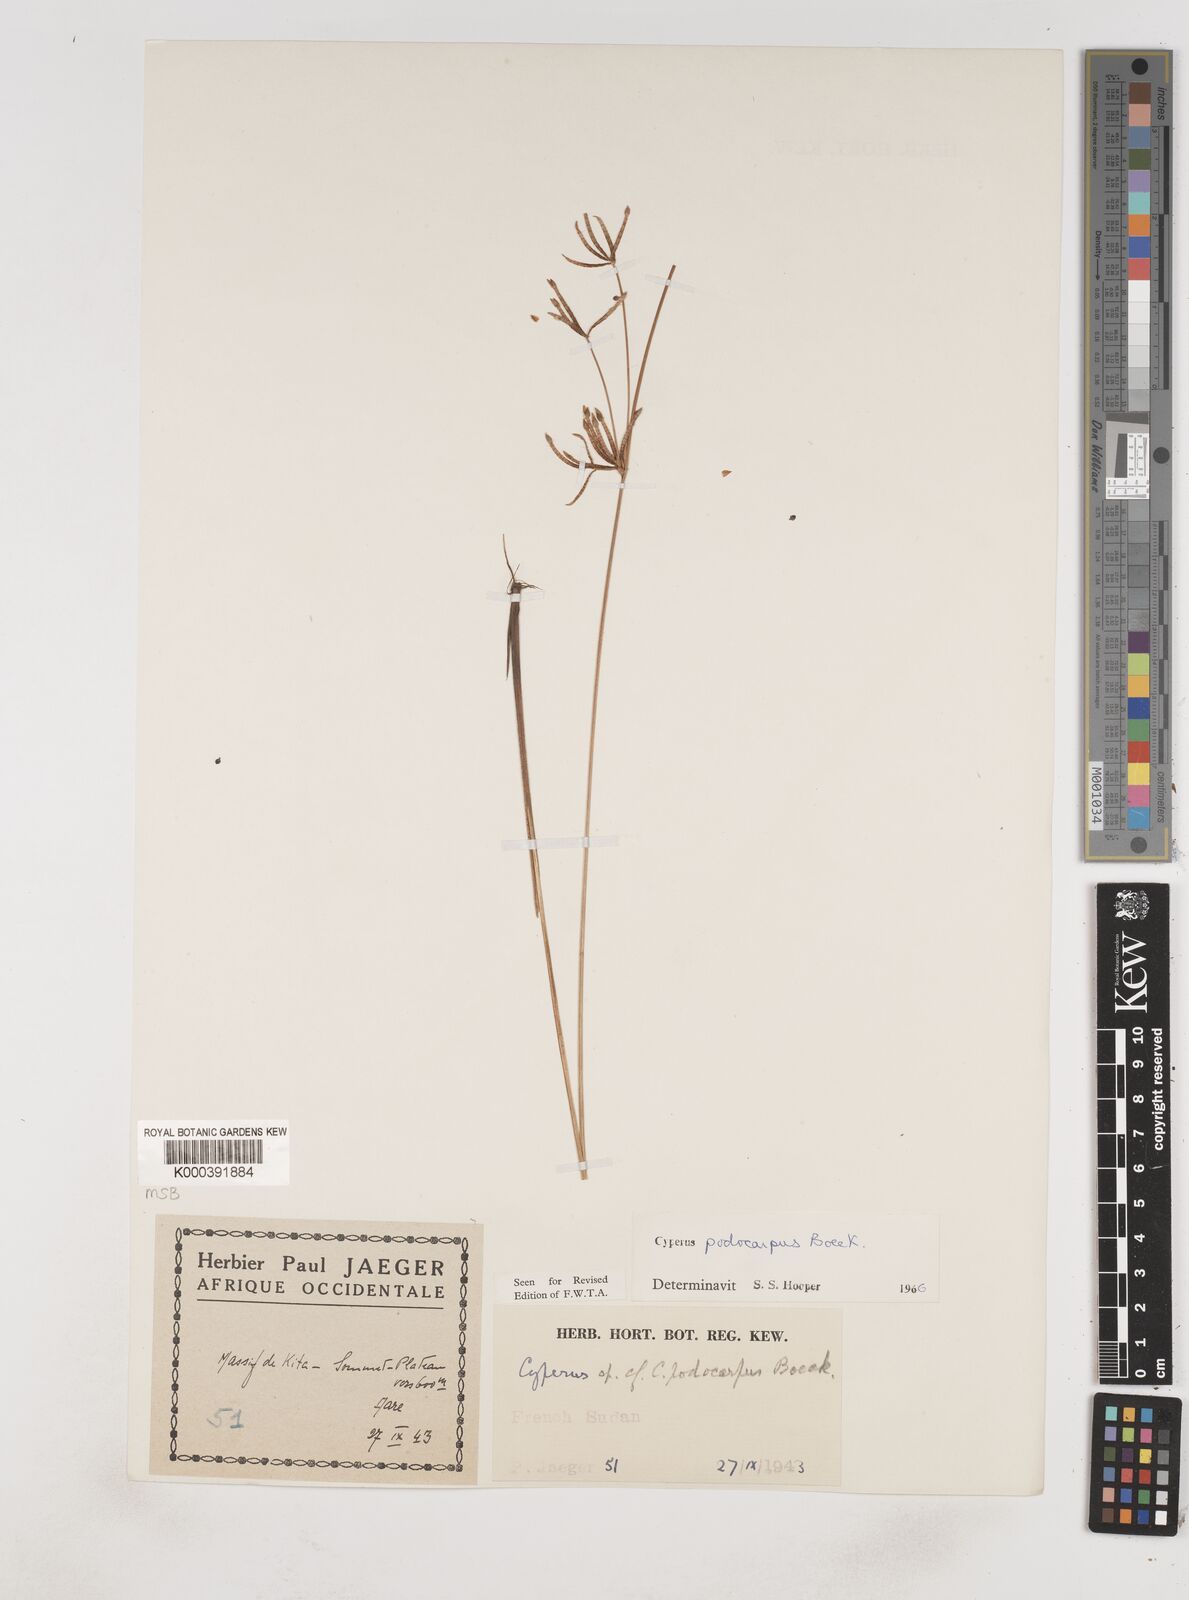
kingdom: Plantae
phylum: Tracheophyta
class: Liliopsida
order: Poales
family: Cyperaceae
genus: Cyperus
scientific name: Cyperus podocarpus
